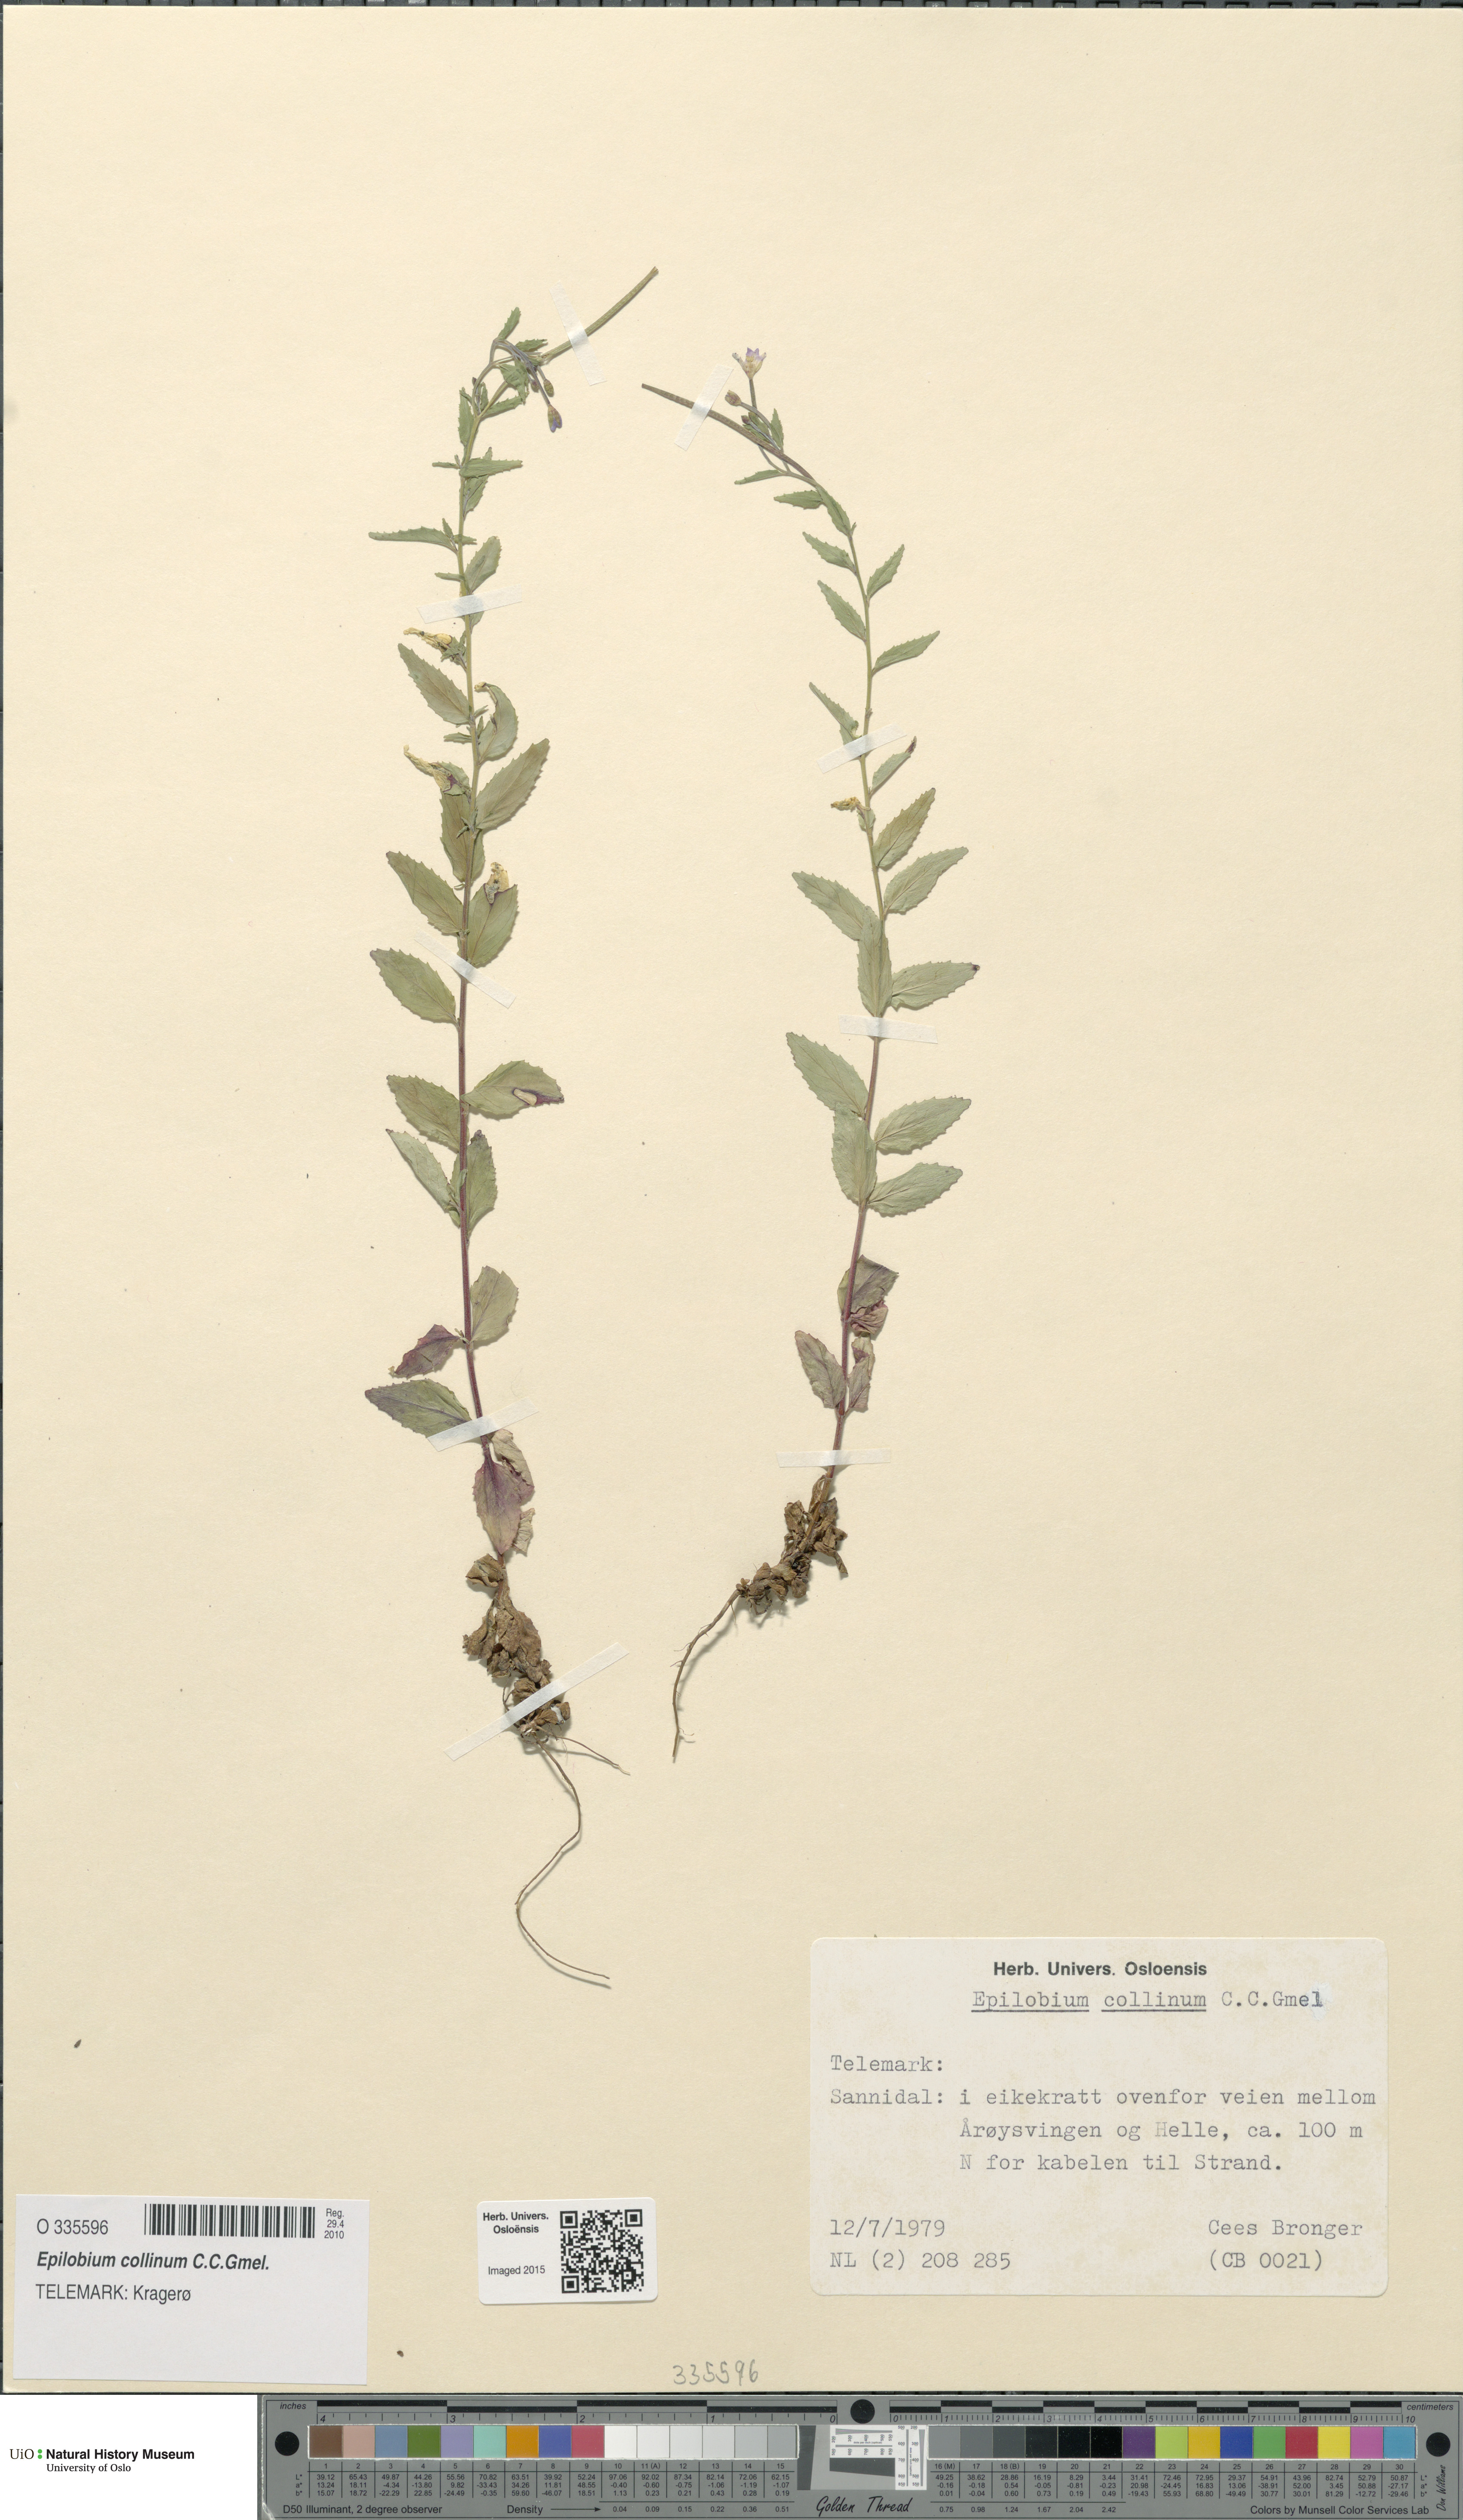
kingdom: Plantae
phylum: Tracheophyta
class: Magnoliopsida
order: Myrtales
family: Onagraceae
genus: Epilobium
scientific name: Epilobium collinum
